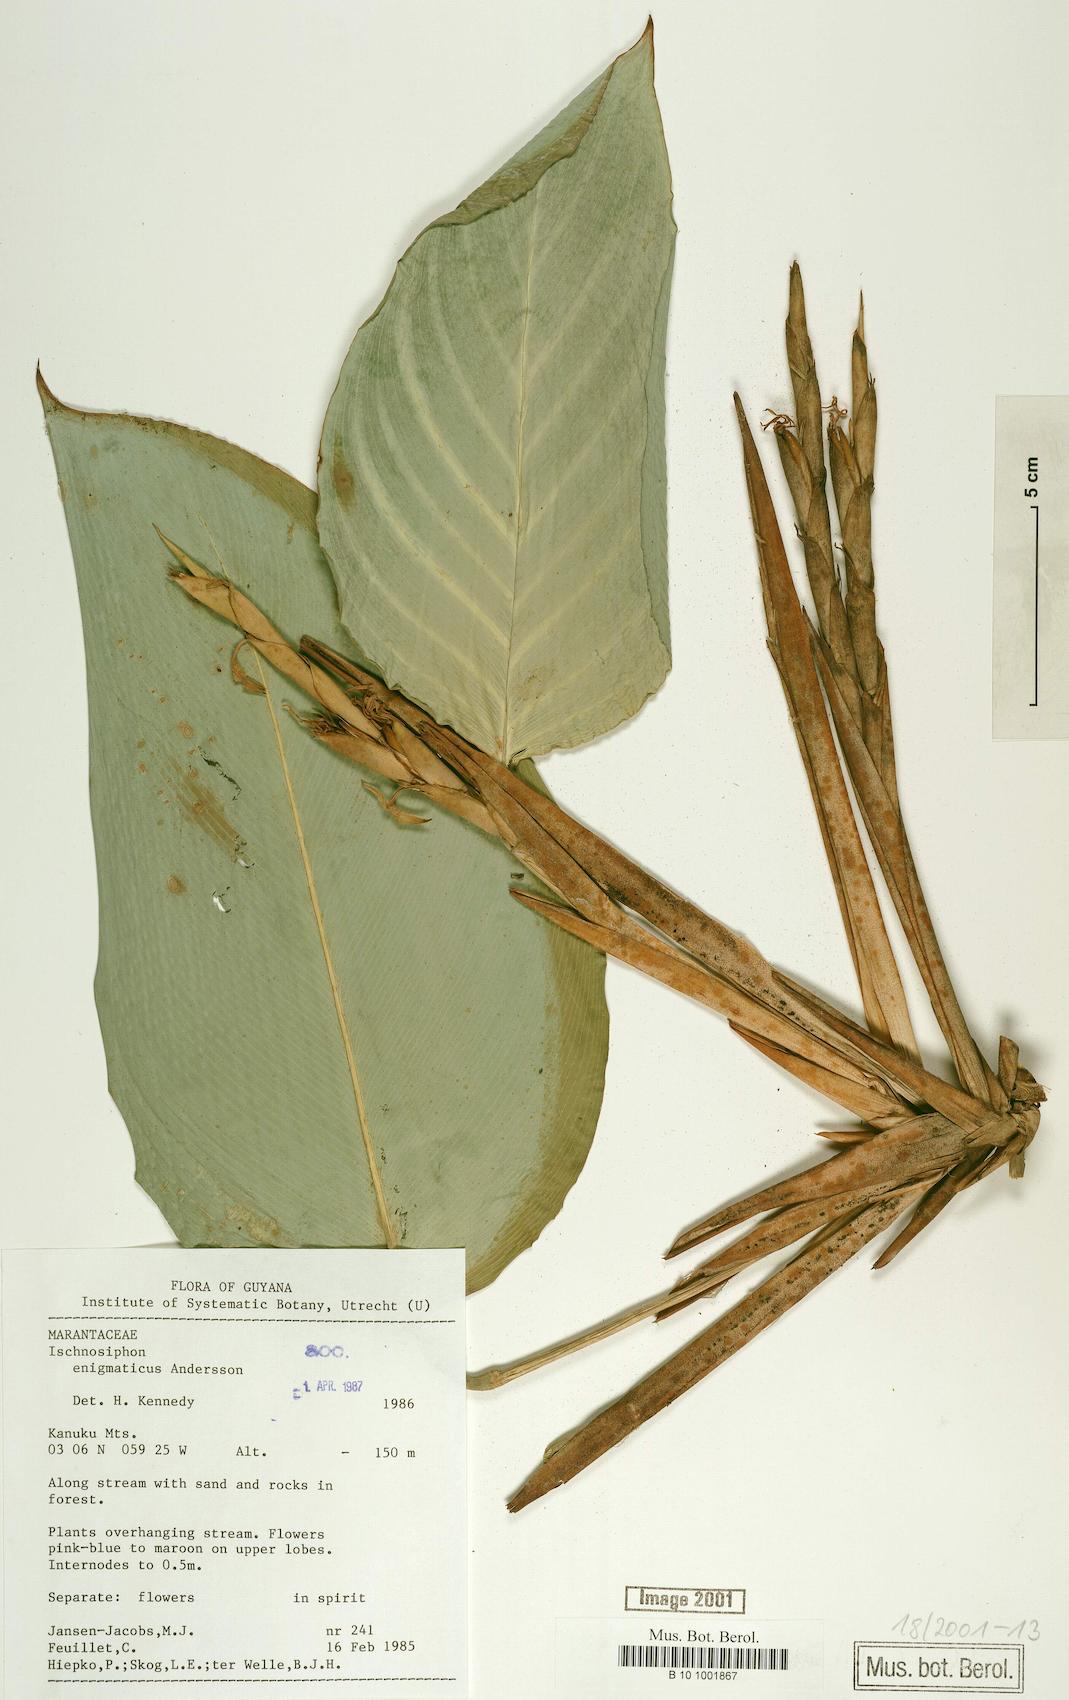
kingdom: Plantae
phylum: Tracheophyta
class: Liliopsida
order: Zingiberales
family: Marantaceae
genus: Ischnosiphon
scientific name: Ischnosiphon enigmaticus
